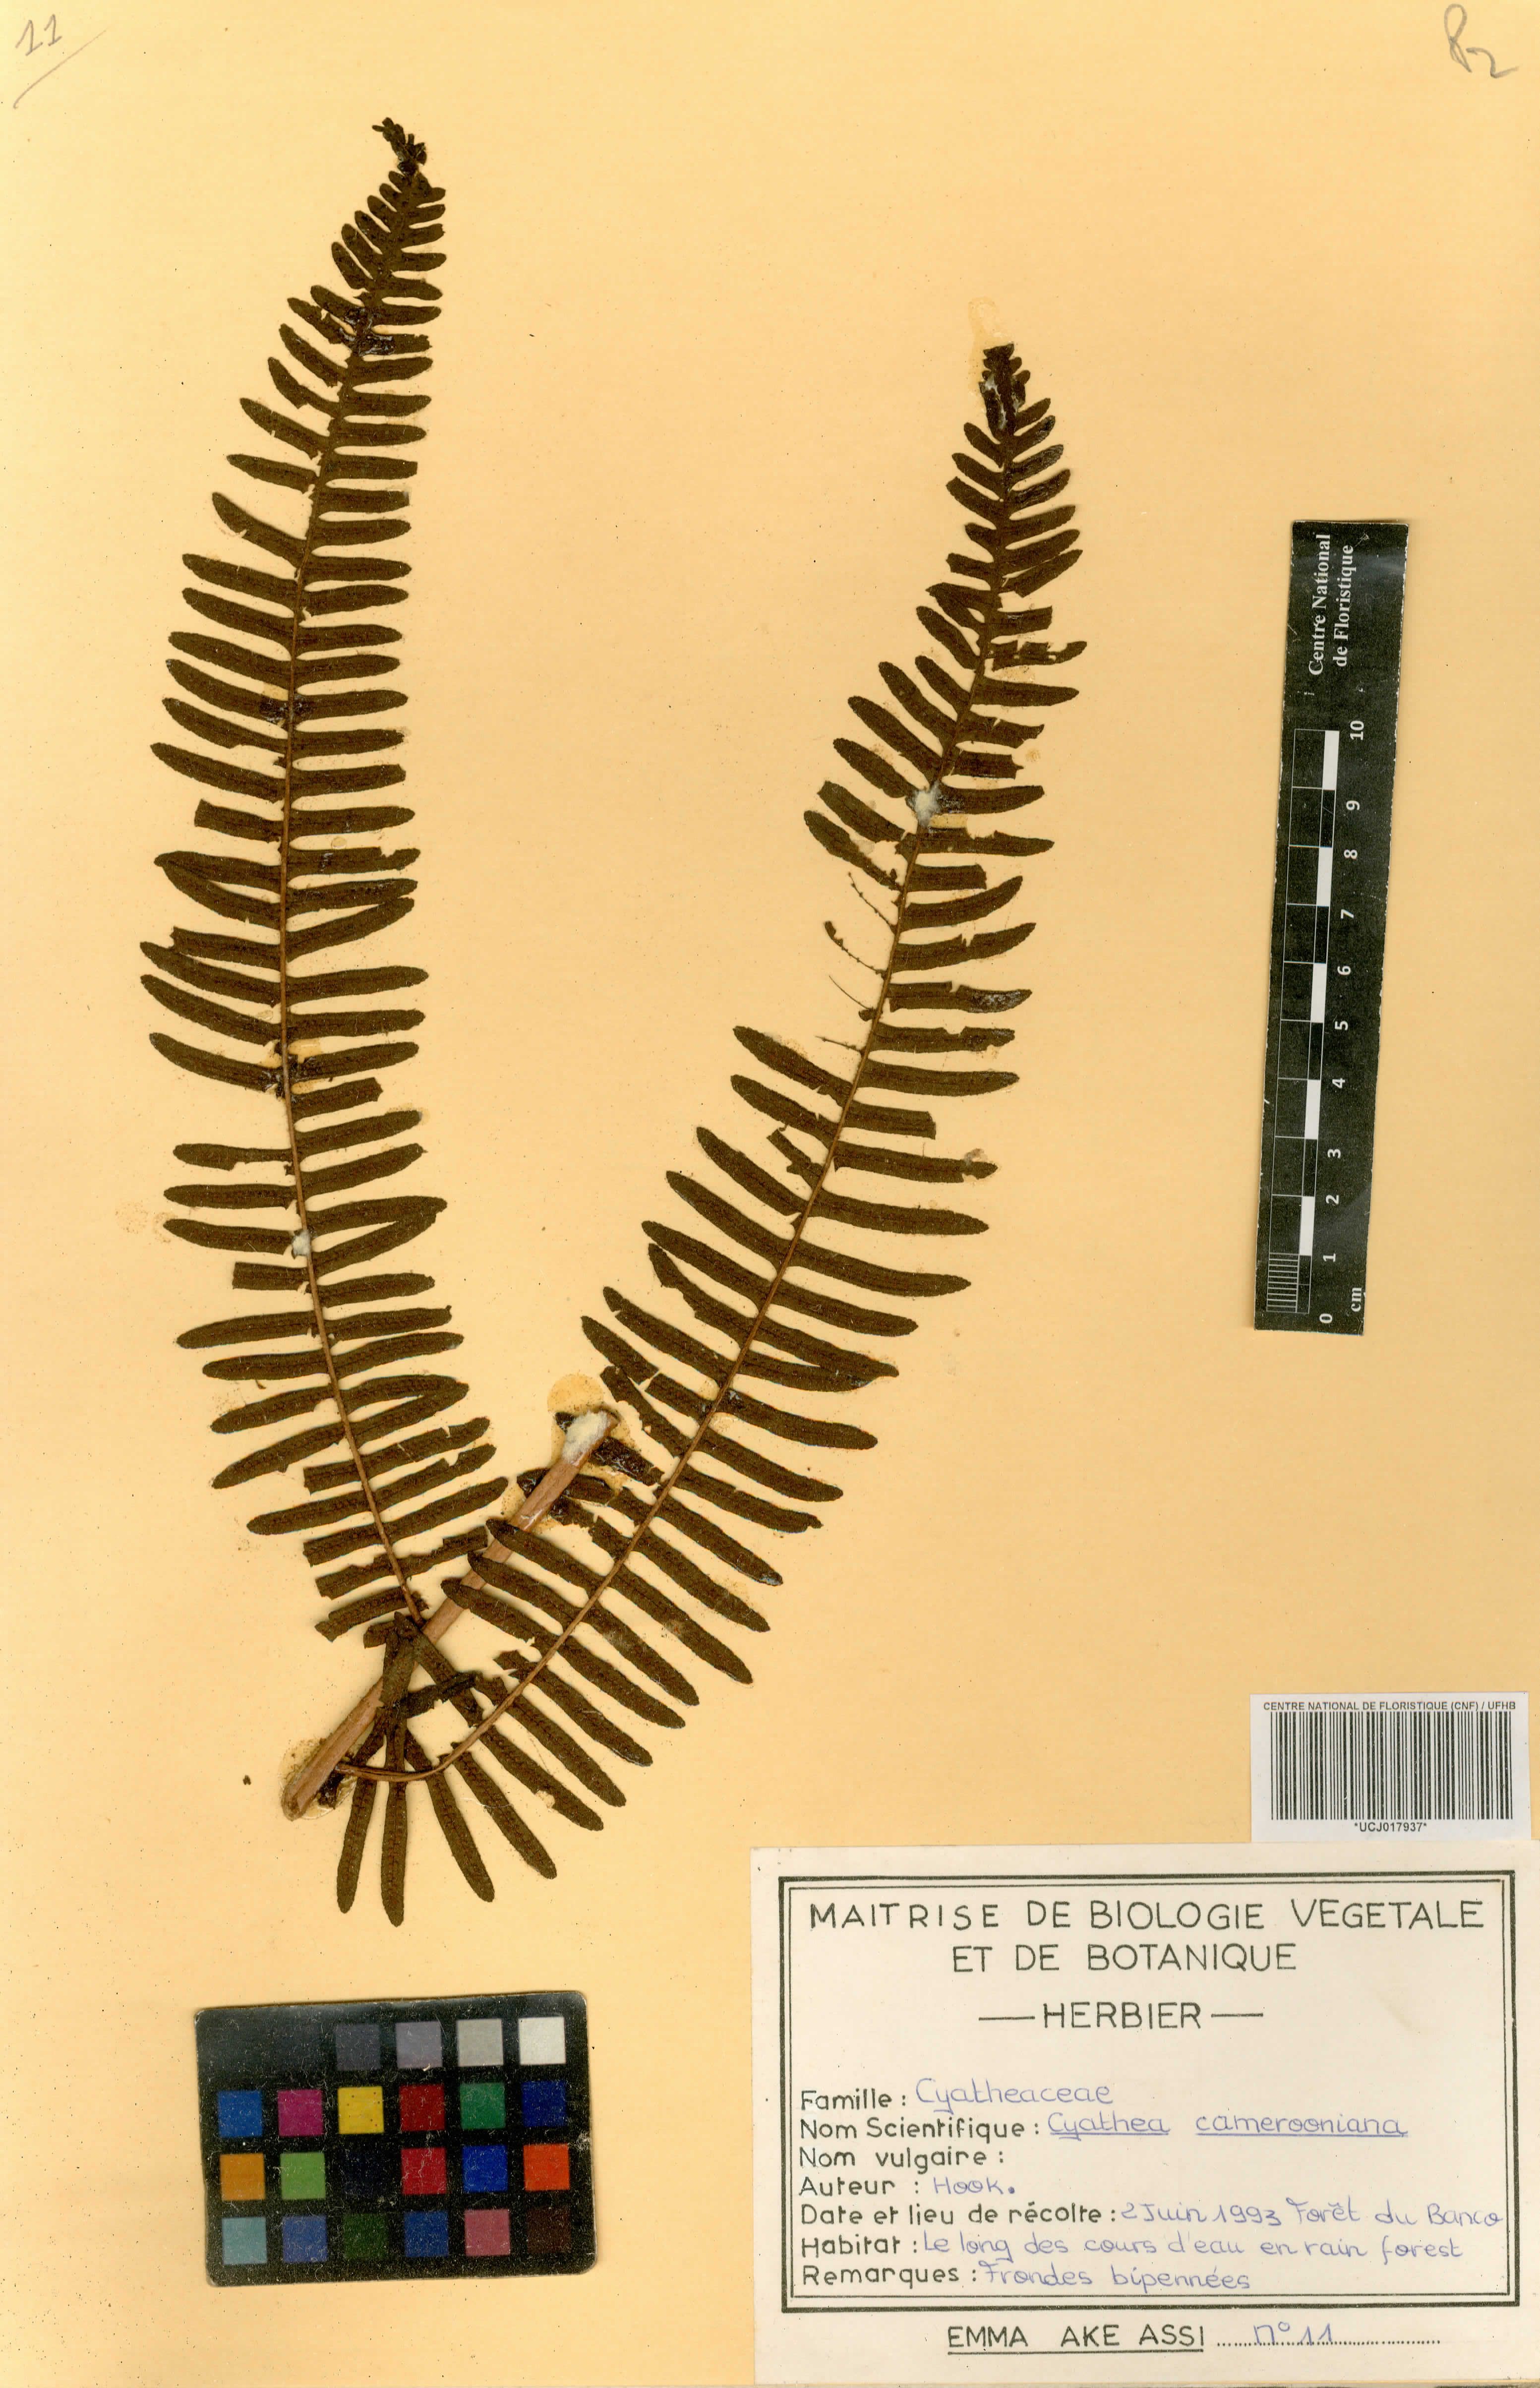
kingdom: Plantae
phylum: Tracheophyta
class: Polypodiopsida
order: Cyatheales
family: Cyatheaceae
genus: Alsophila
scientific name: Alsophila camerooniana
